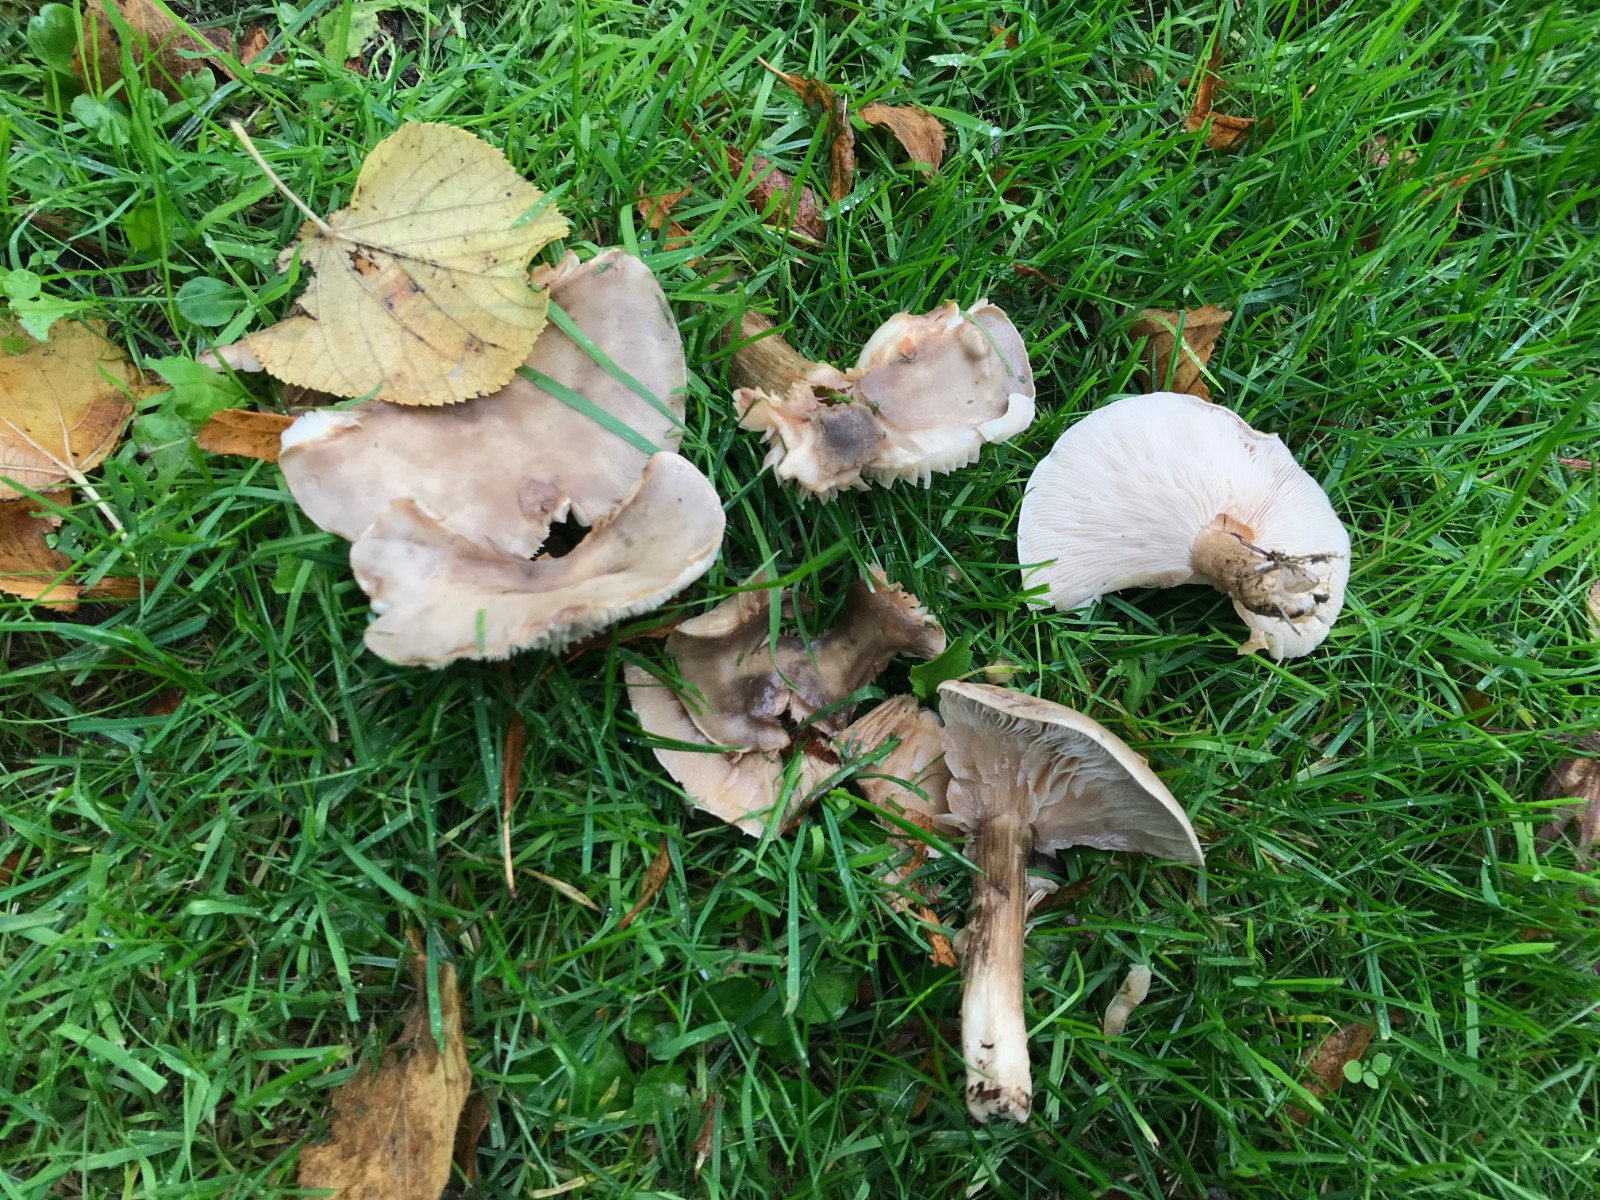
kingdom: Fungi
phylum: Basidiomycota
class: Agaricomycetes
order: Agaricales
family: Tricholomataceae
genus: Melanoleuca
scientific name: Melanoleuca
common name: munkehat
